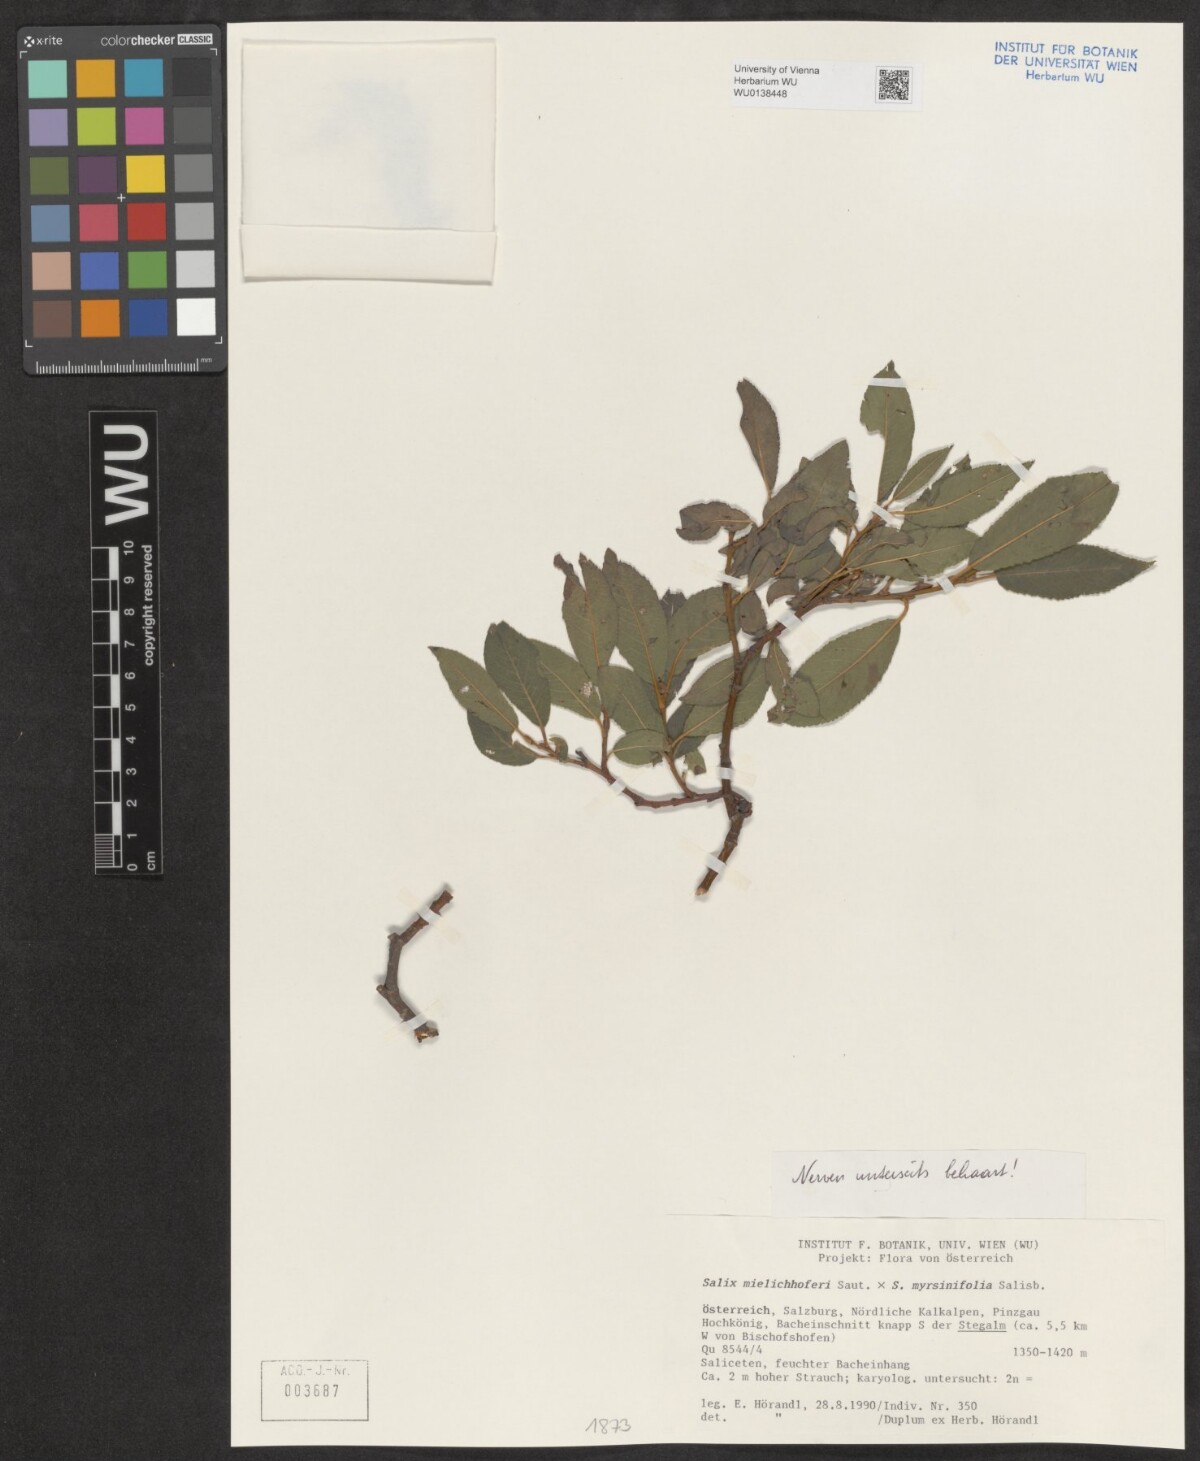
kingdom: Plantae
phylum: Tracheophyta
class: Magnoliopsida
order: Malpighiales
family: Salicaceae
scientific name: Salicaceae
